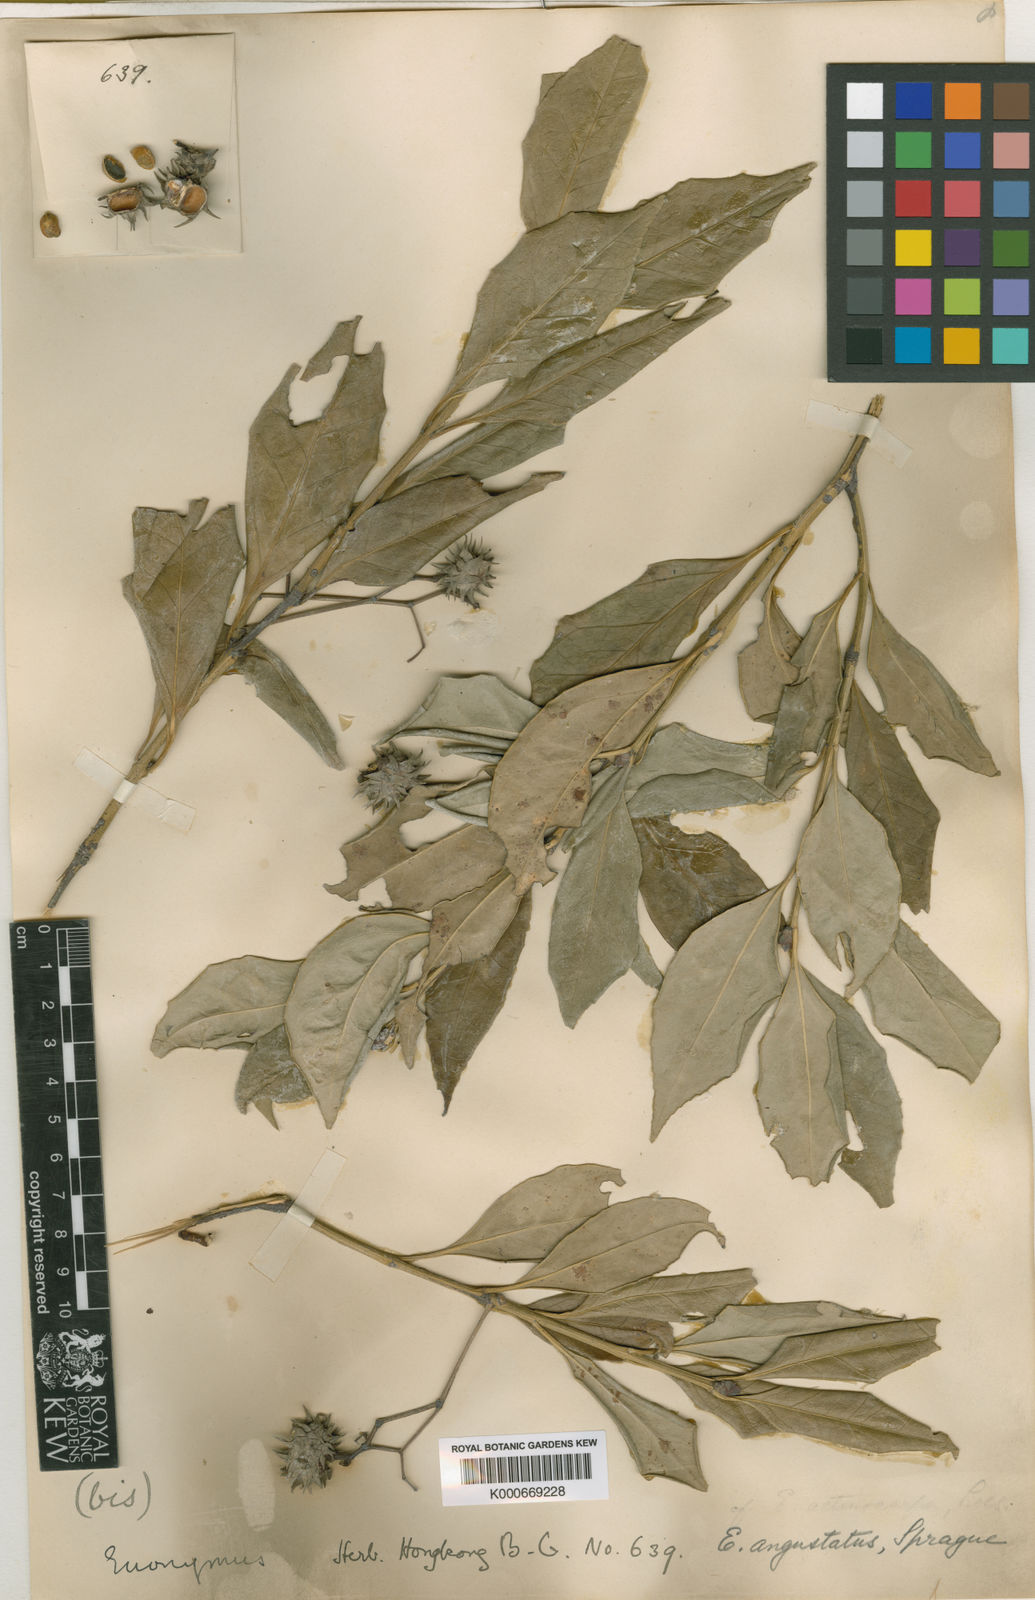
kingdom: Plantae
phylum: Tracheophyta
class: Magnoliopsida
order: Celastrales
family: Celastraceae
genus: Euonymus
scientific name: Euonymus actinocarpus
